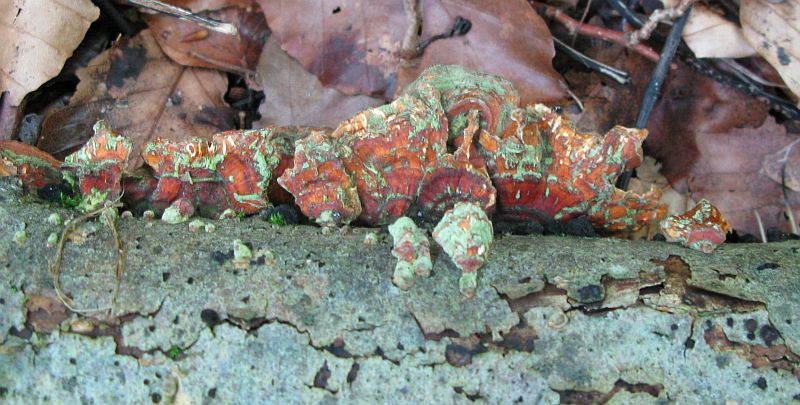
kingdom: Fungi
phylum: Basidiomycota
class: Agaricomycetes
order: Russulales
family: Stereaceae
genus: Stereum
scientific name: Stereum subtomentosum
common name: smuk lædersvamp
